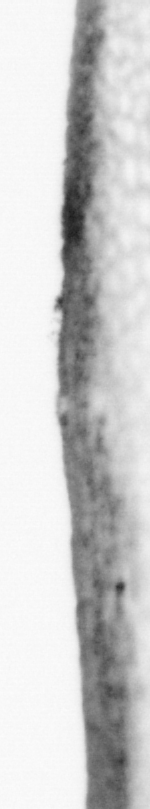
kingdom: Animalia
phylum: Chordata
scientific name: Chordata
